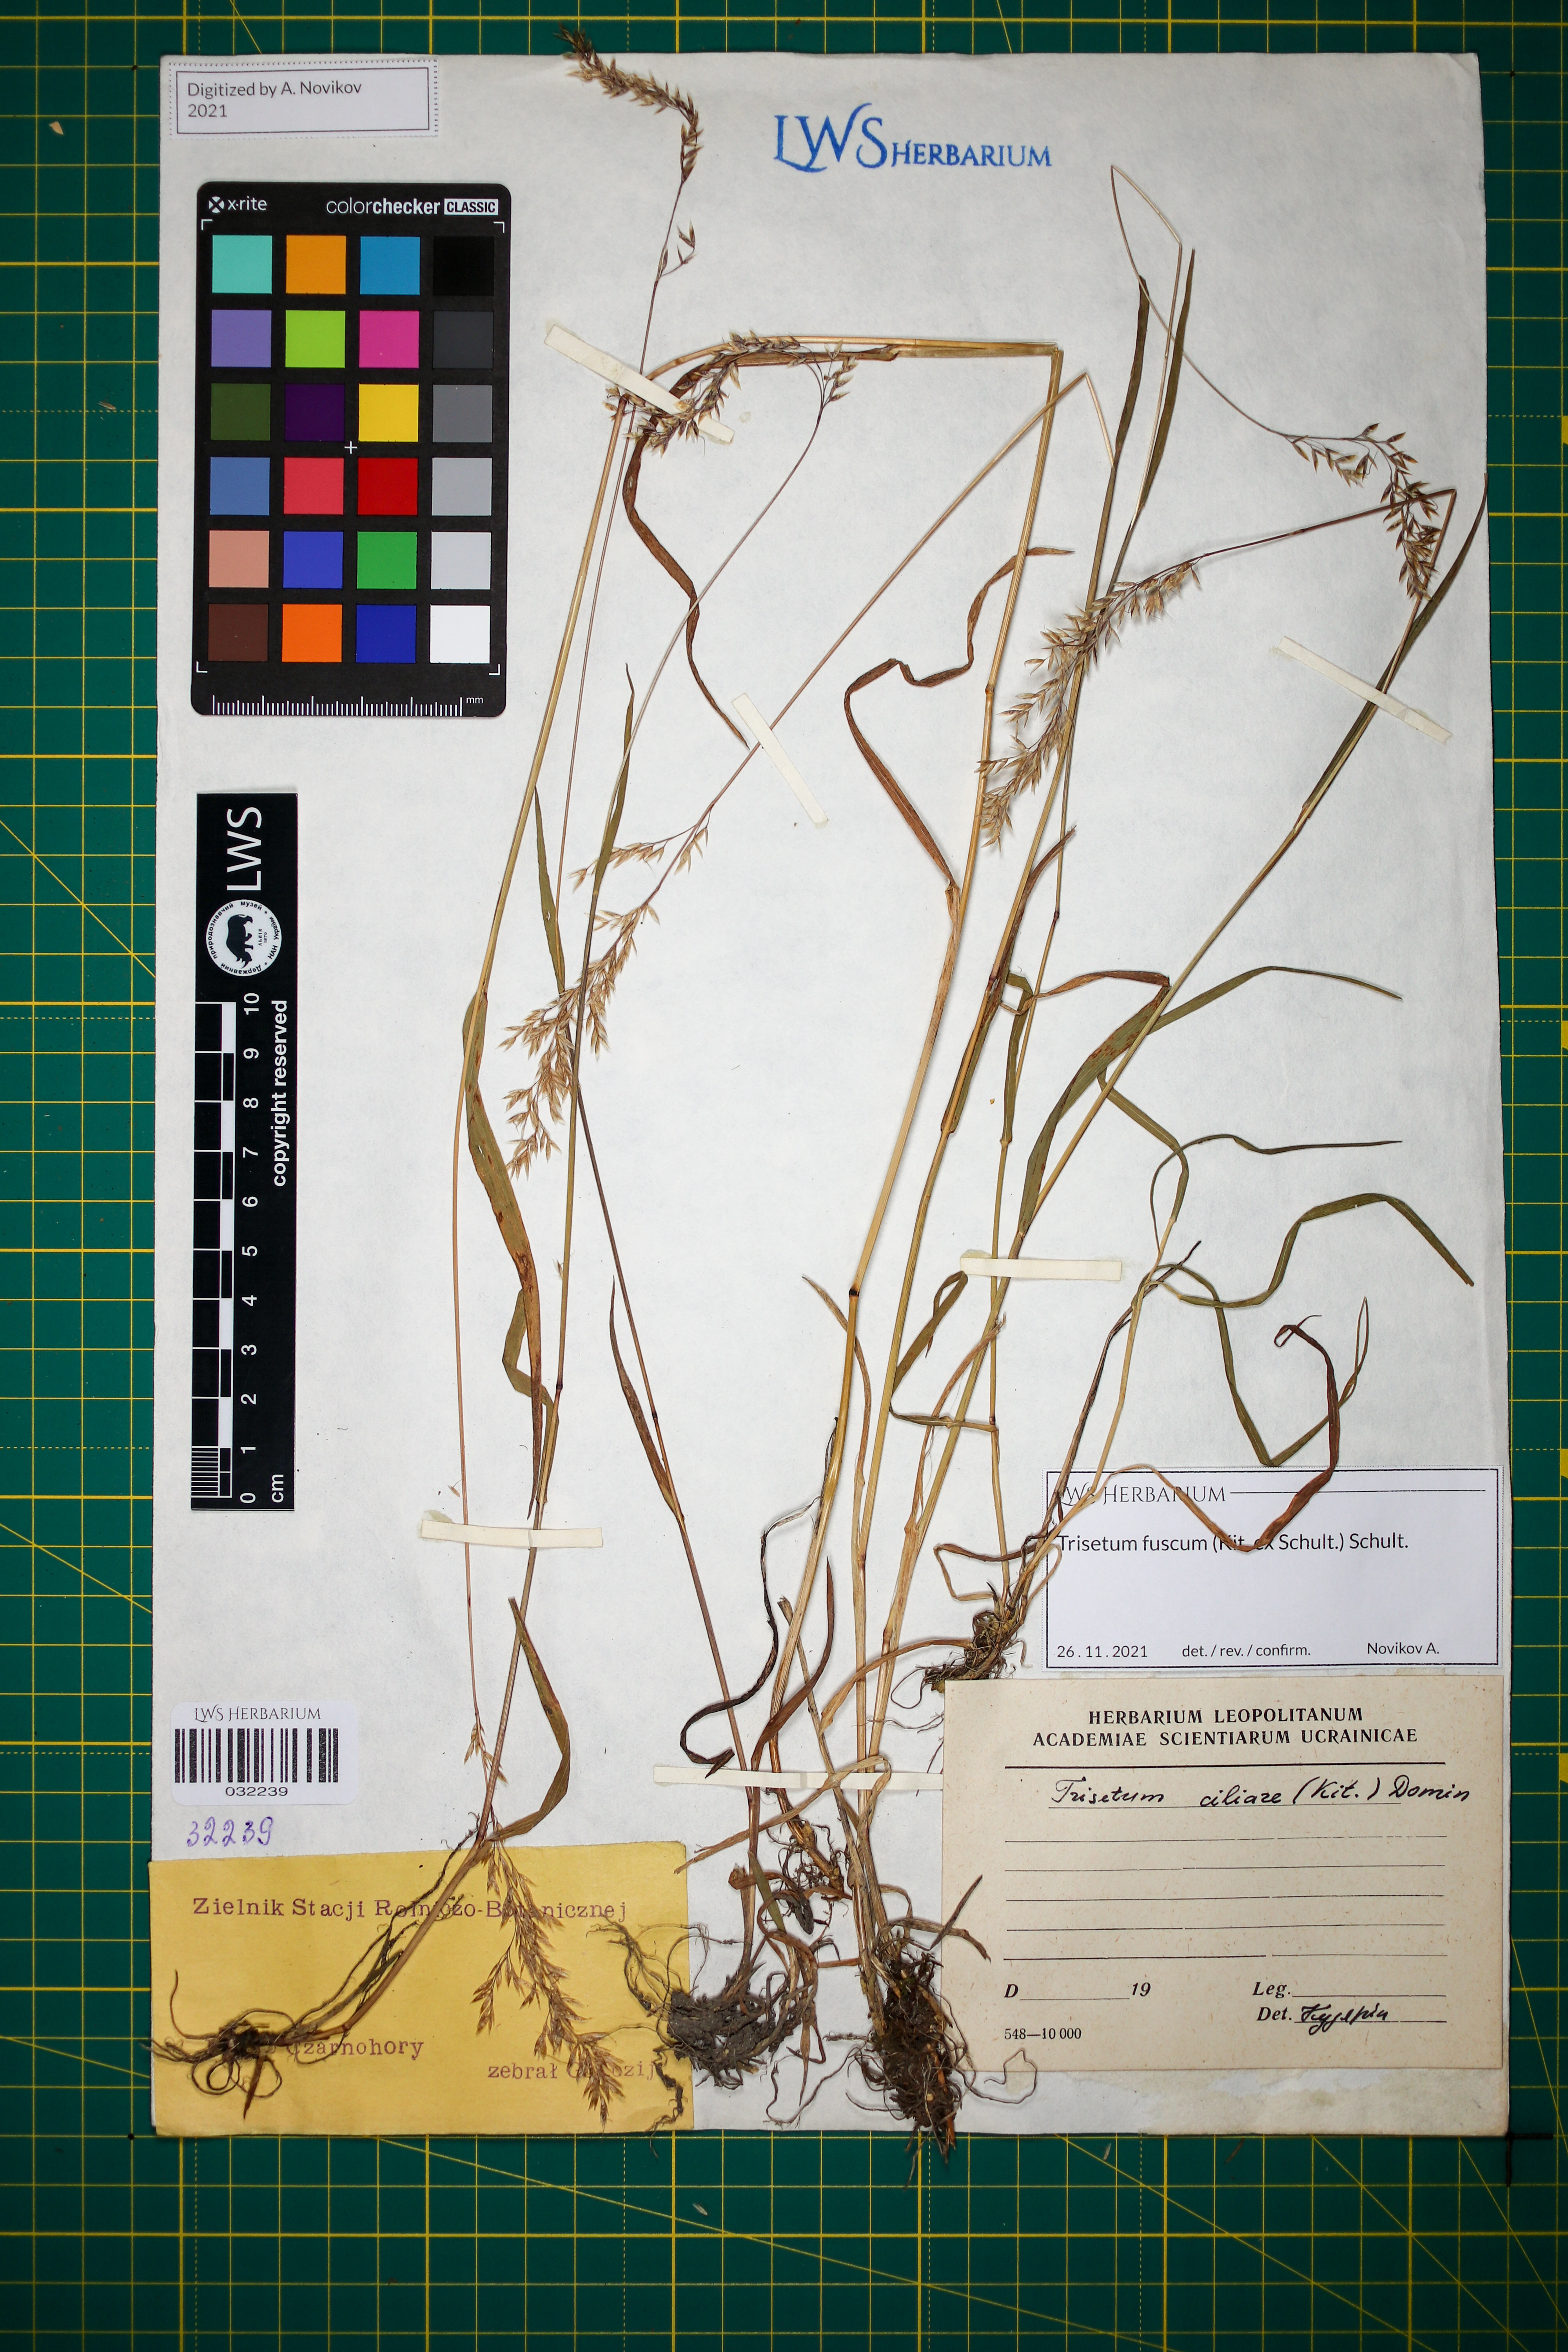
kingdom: Plantae
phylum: Tracheophyta
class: Liliopsida
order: Poales
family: Poaceae
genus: Trisetum
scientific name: Trisetum fuscum
